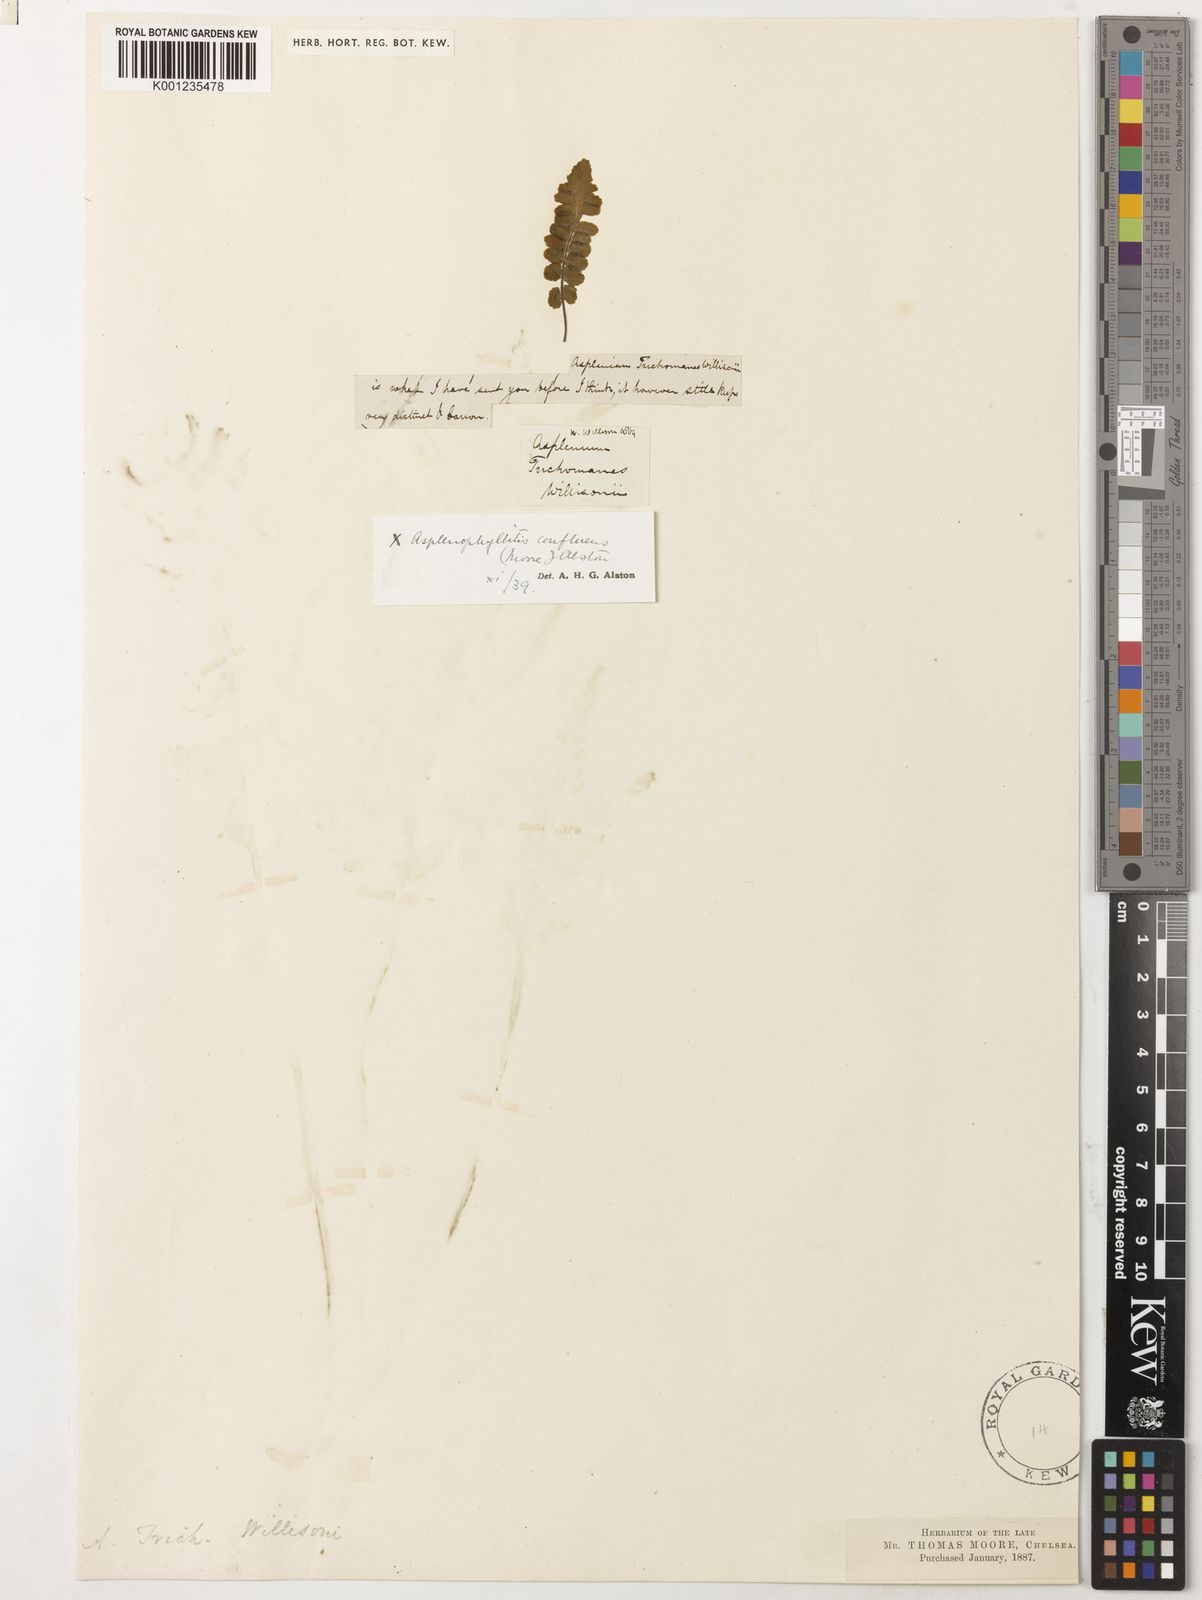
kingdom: Plantae
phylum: Tracheophyta
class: Polypodiopsida
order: Polypodiales
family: Aspleniaceae
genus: Asplenium
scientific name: Asplenium lawalreei
